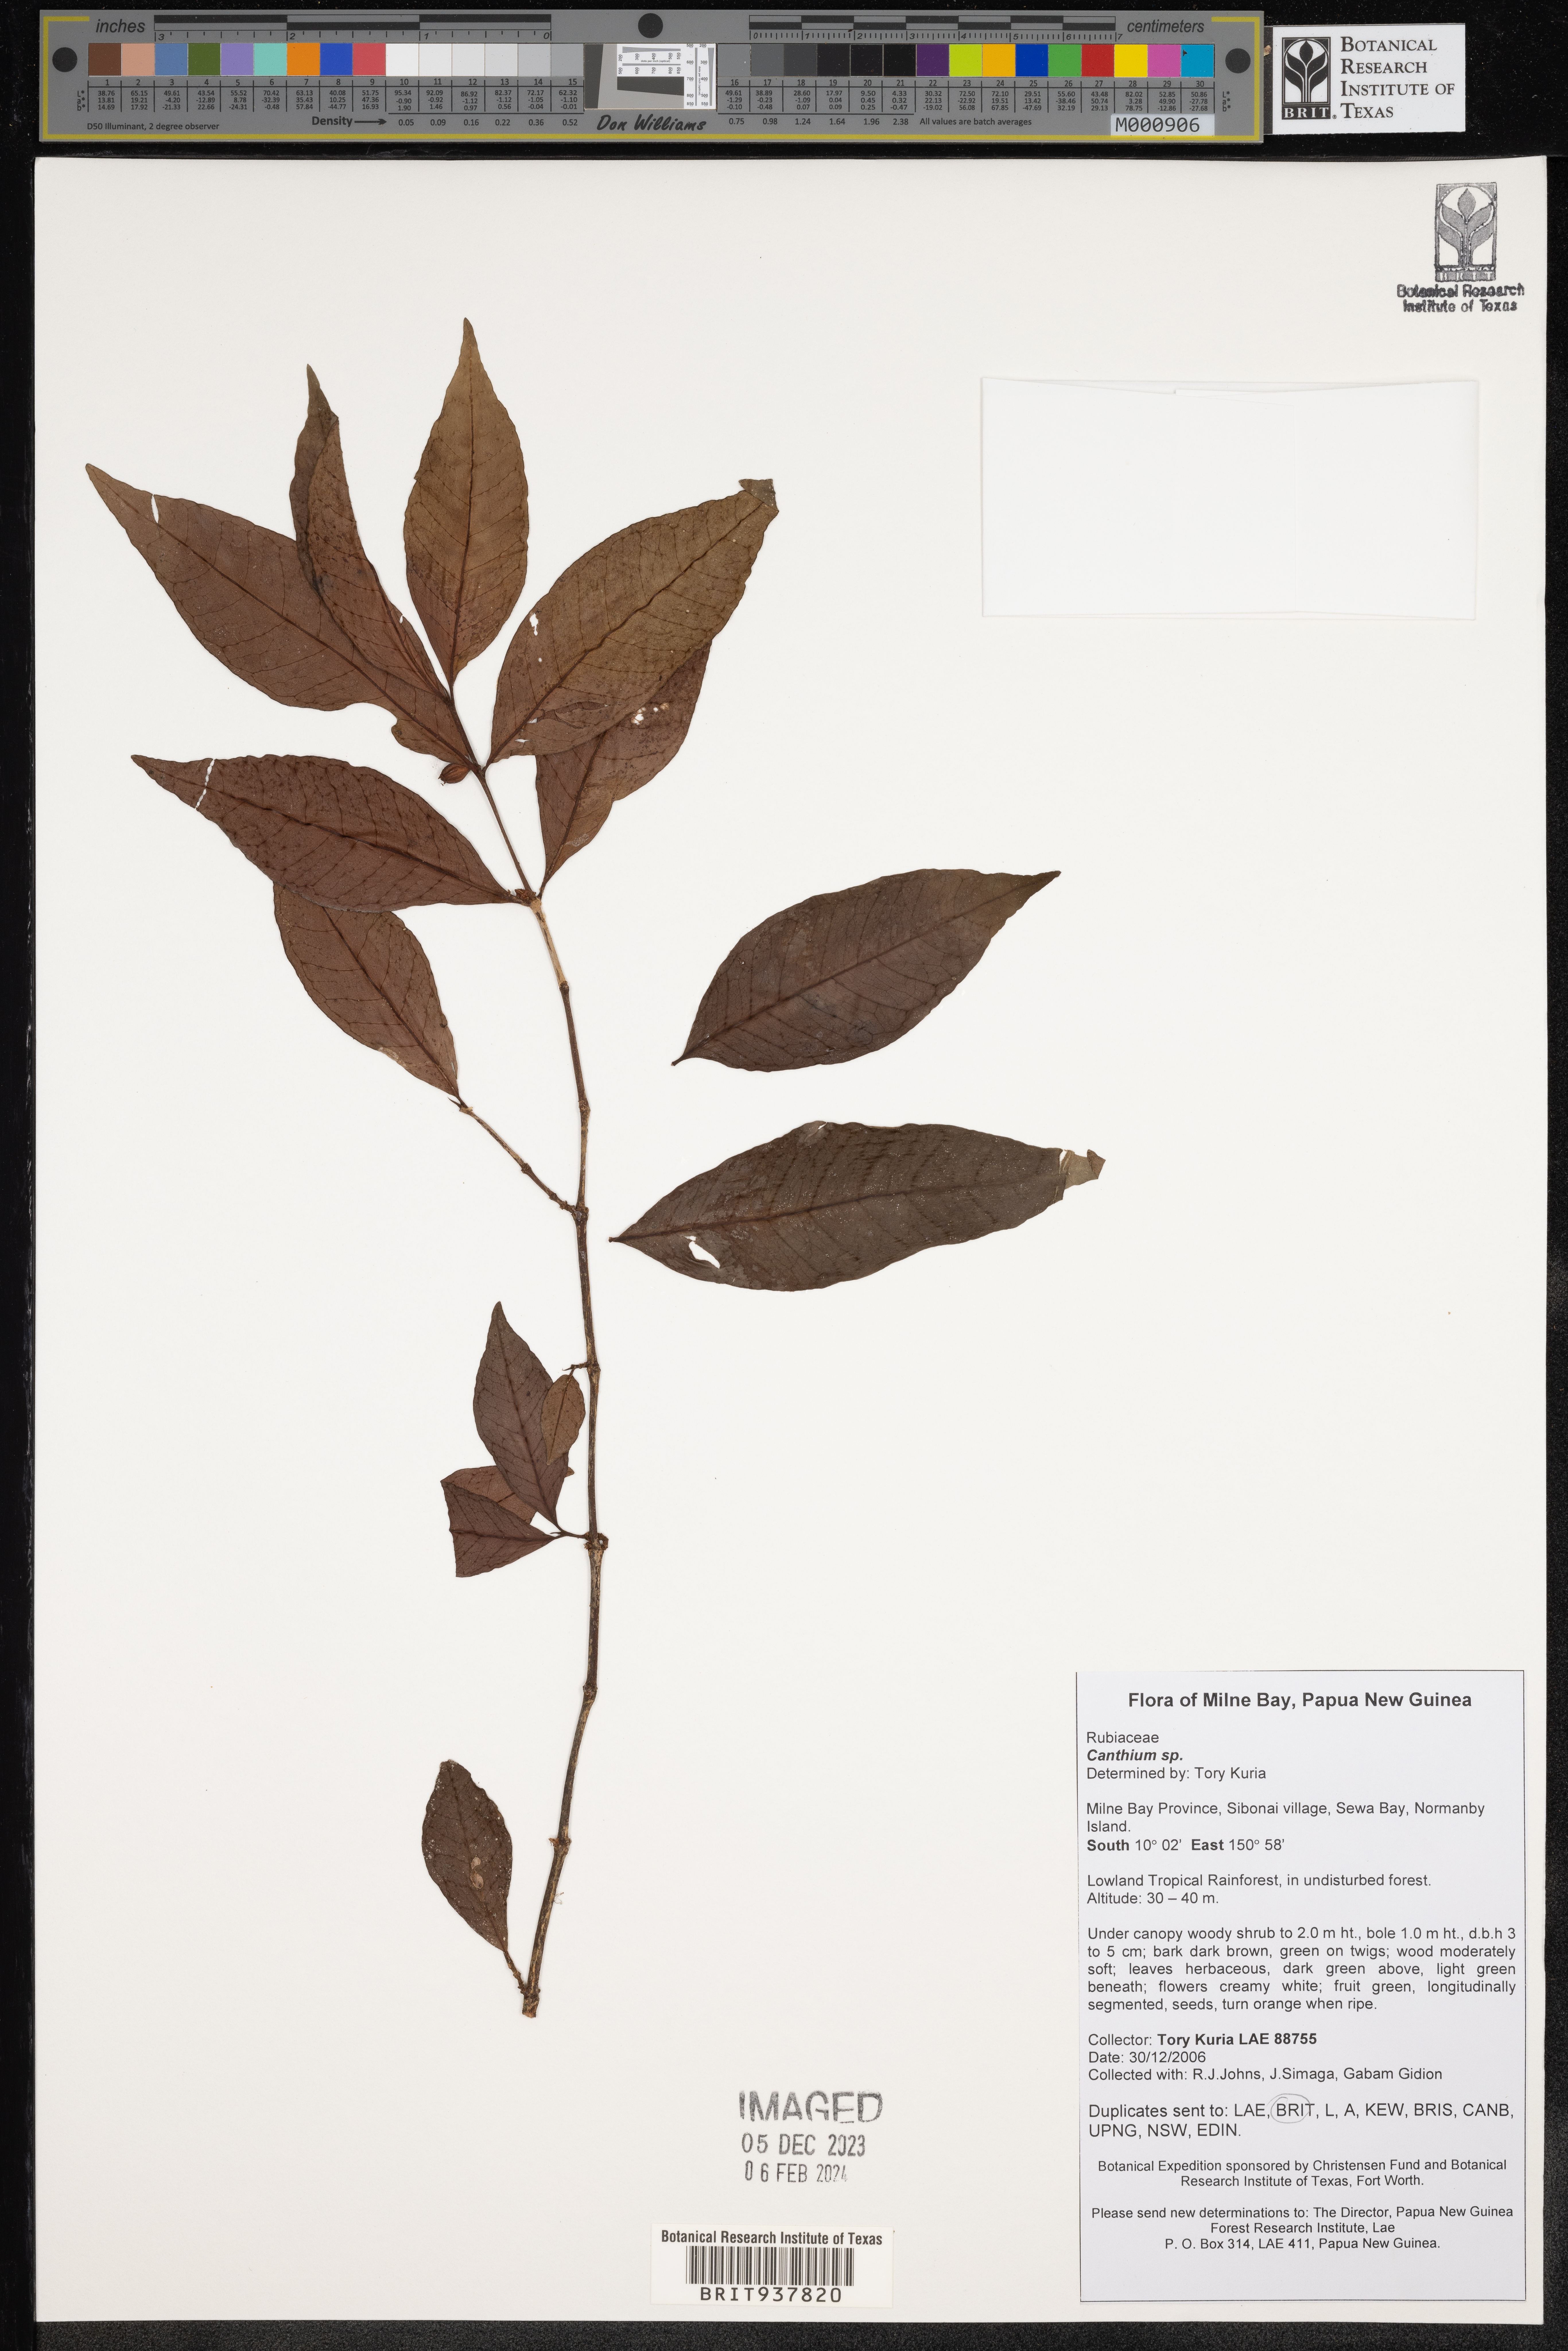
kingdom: Plantae
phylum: Tracheophyta
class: Magnoliopsida
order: Gentianales
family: Rubiaceae
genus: Canthium
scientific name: Canthium
